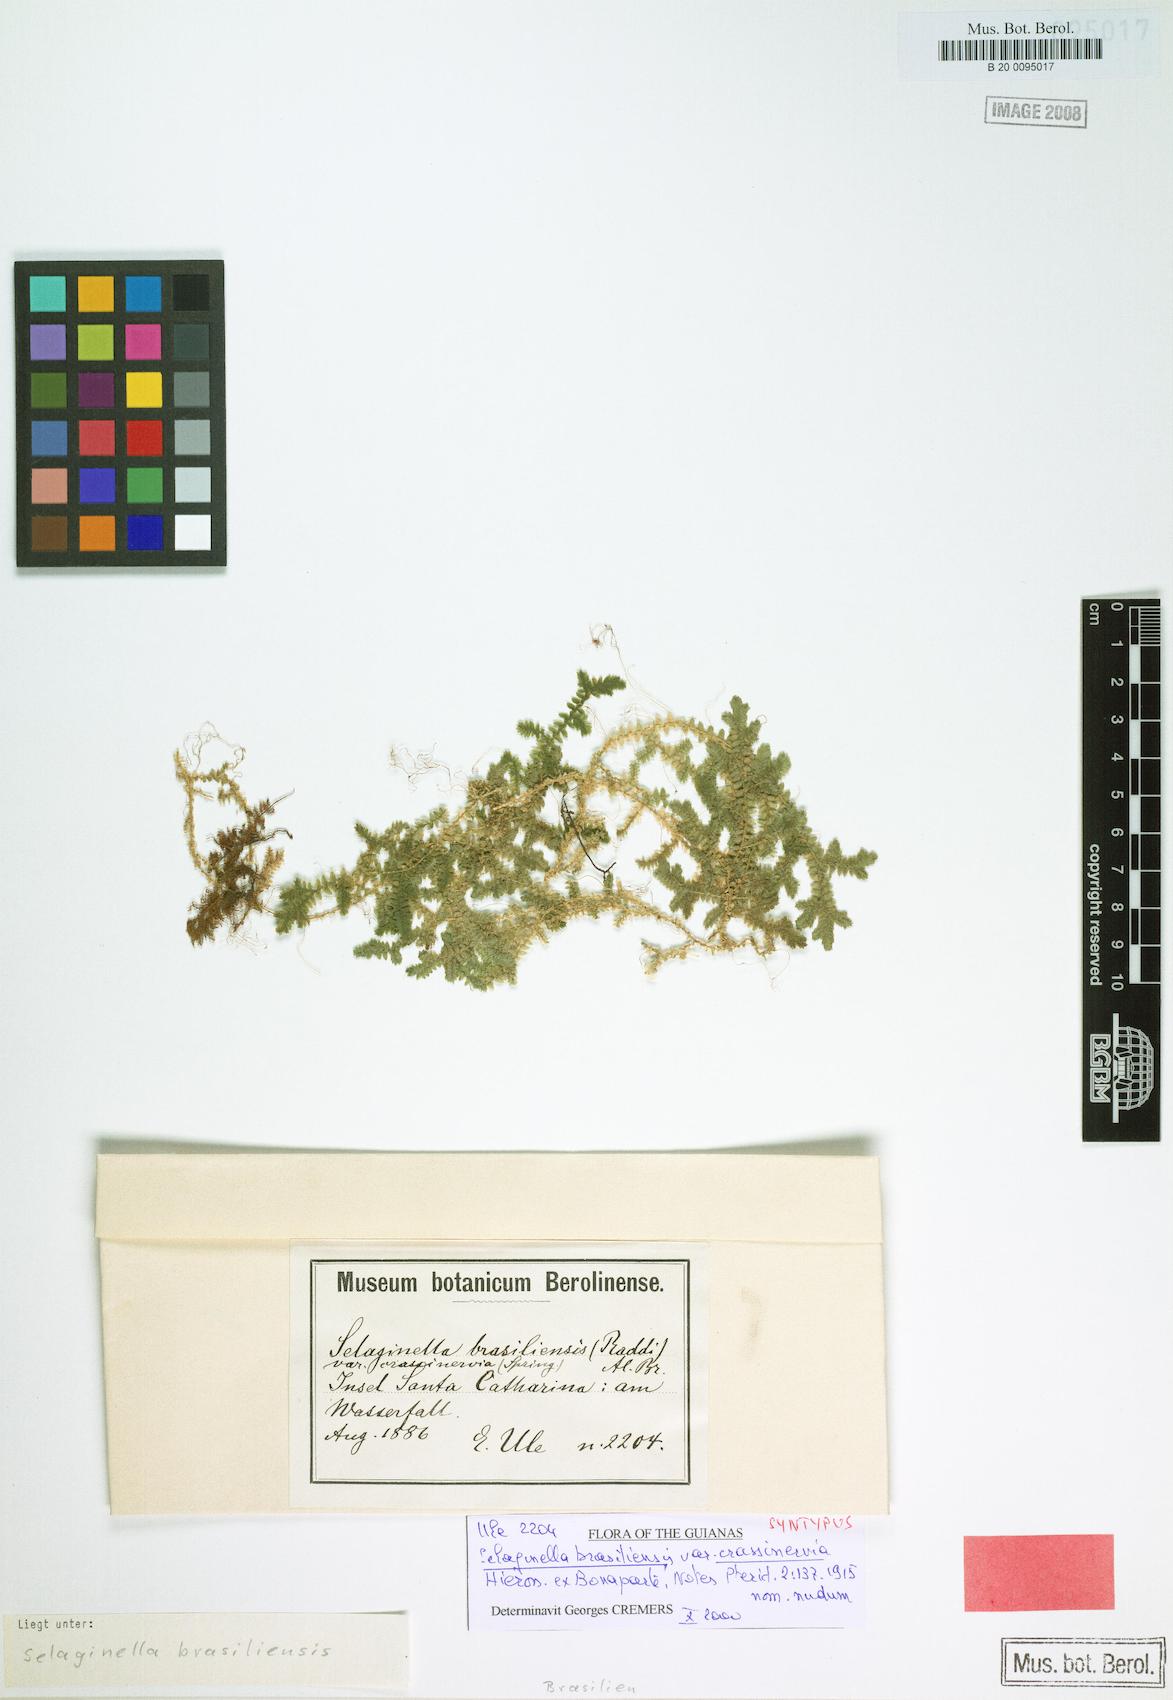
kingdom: Plantae
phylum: Tracheophyta
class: Lycopodiopsida
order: Selaginellales
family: Selaginellaceae
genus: Selaginella
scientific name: Selaginella muscosa
